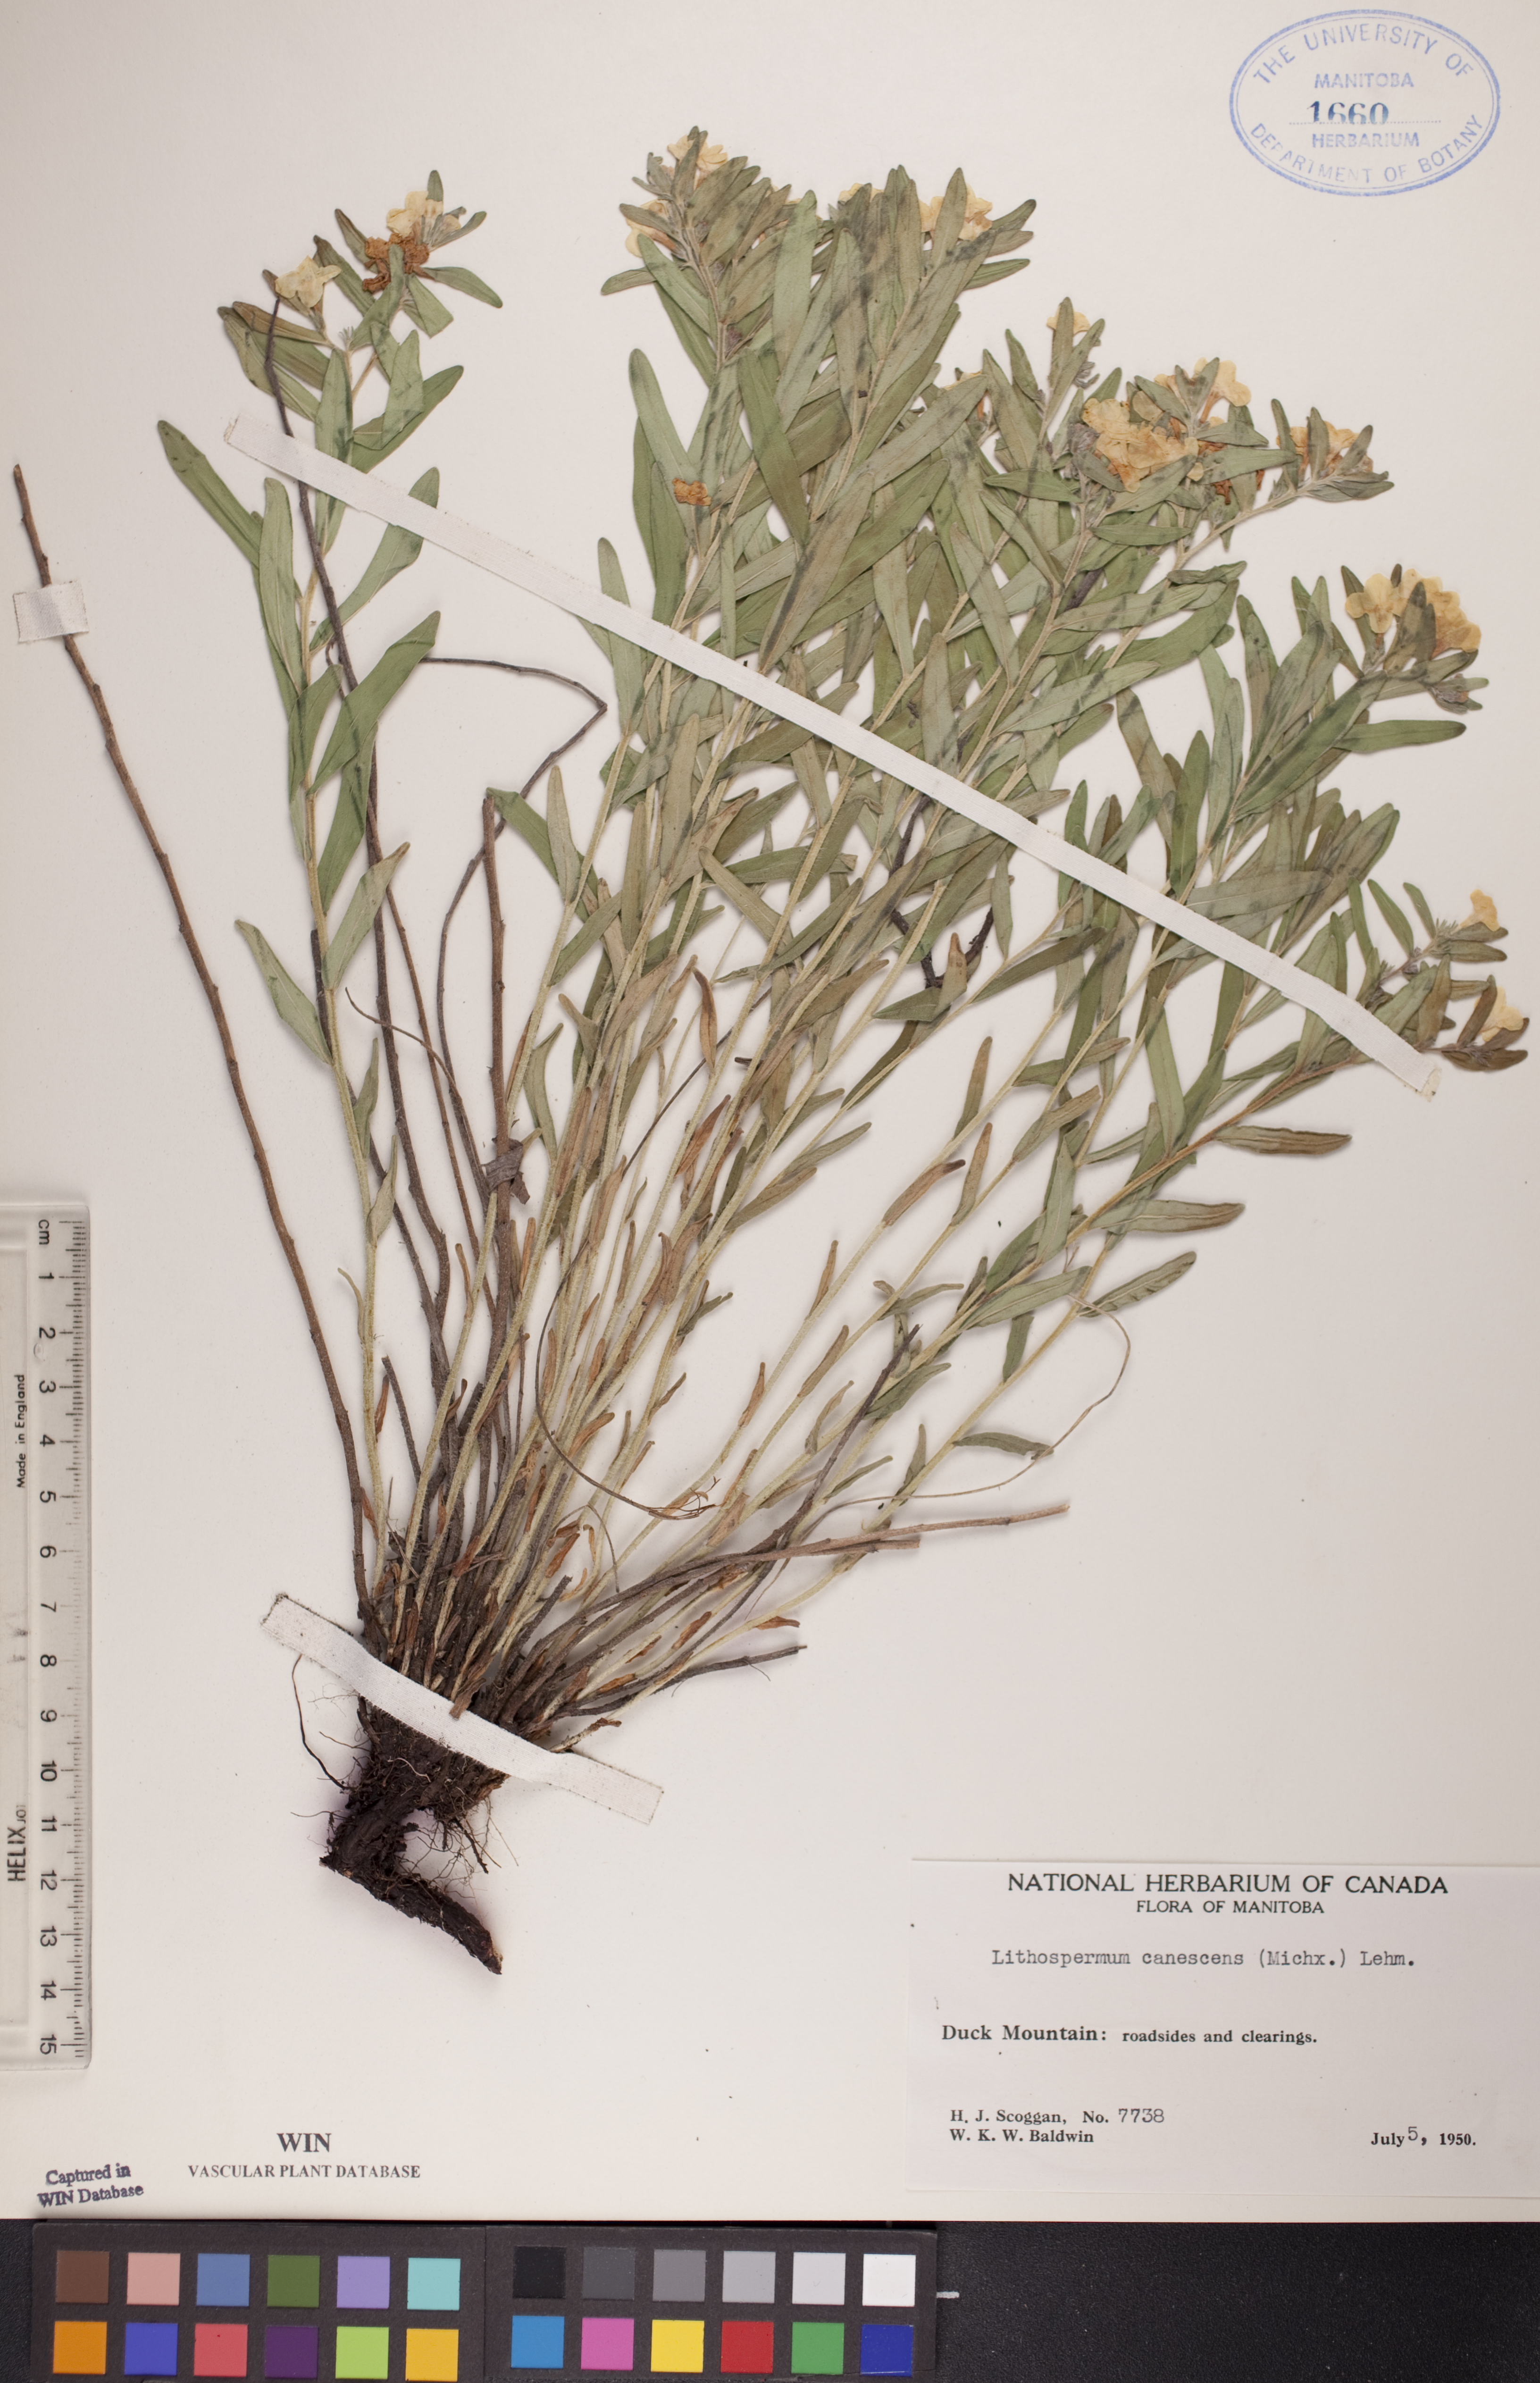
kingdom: Plantae
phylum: Tracheophyta
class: Magnoliopsida
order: Boraginales
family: Boraginaceae
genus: Lithospermum
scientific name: Lithospermum canescens
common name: Hoary puccoon
